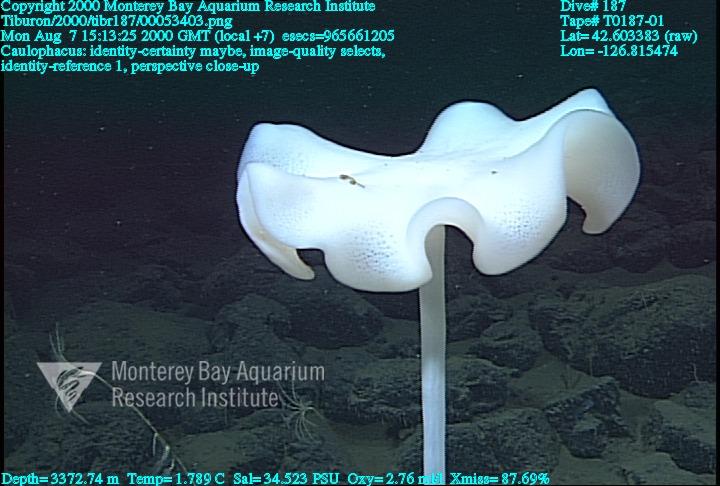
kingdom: Animalia
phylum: Porifera
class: Hexactinellida
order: Lyssacinosida
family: Rossellidae
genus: Caulophacus
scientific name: Caulophacus
